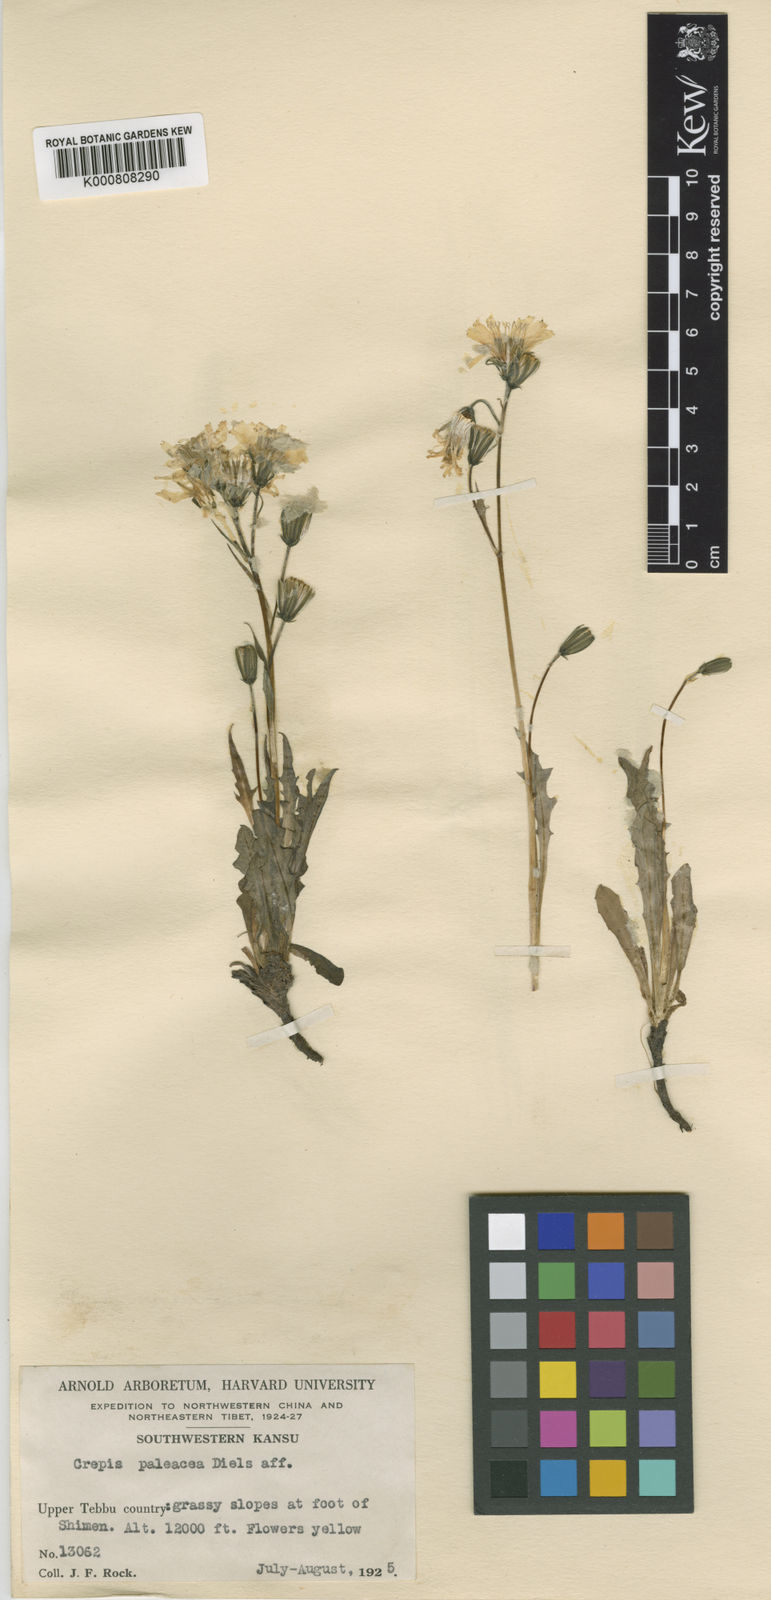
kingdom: Plantae
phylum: Tracheophyta
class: Magnoliopsida
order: Asterales
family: Asteraceae
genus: Youngia
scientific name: Youngia conjunctiva
